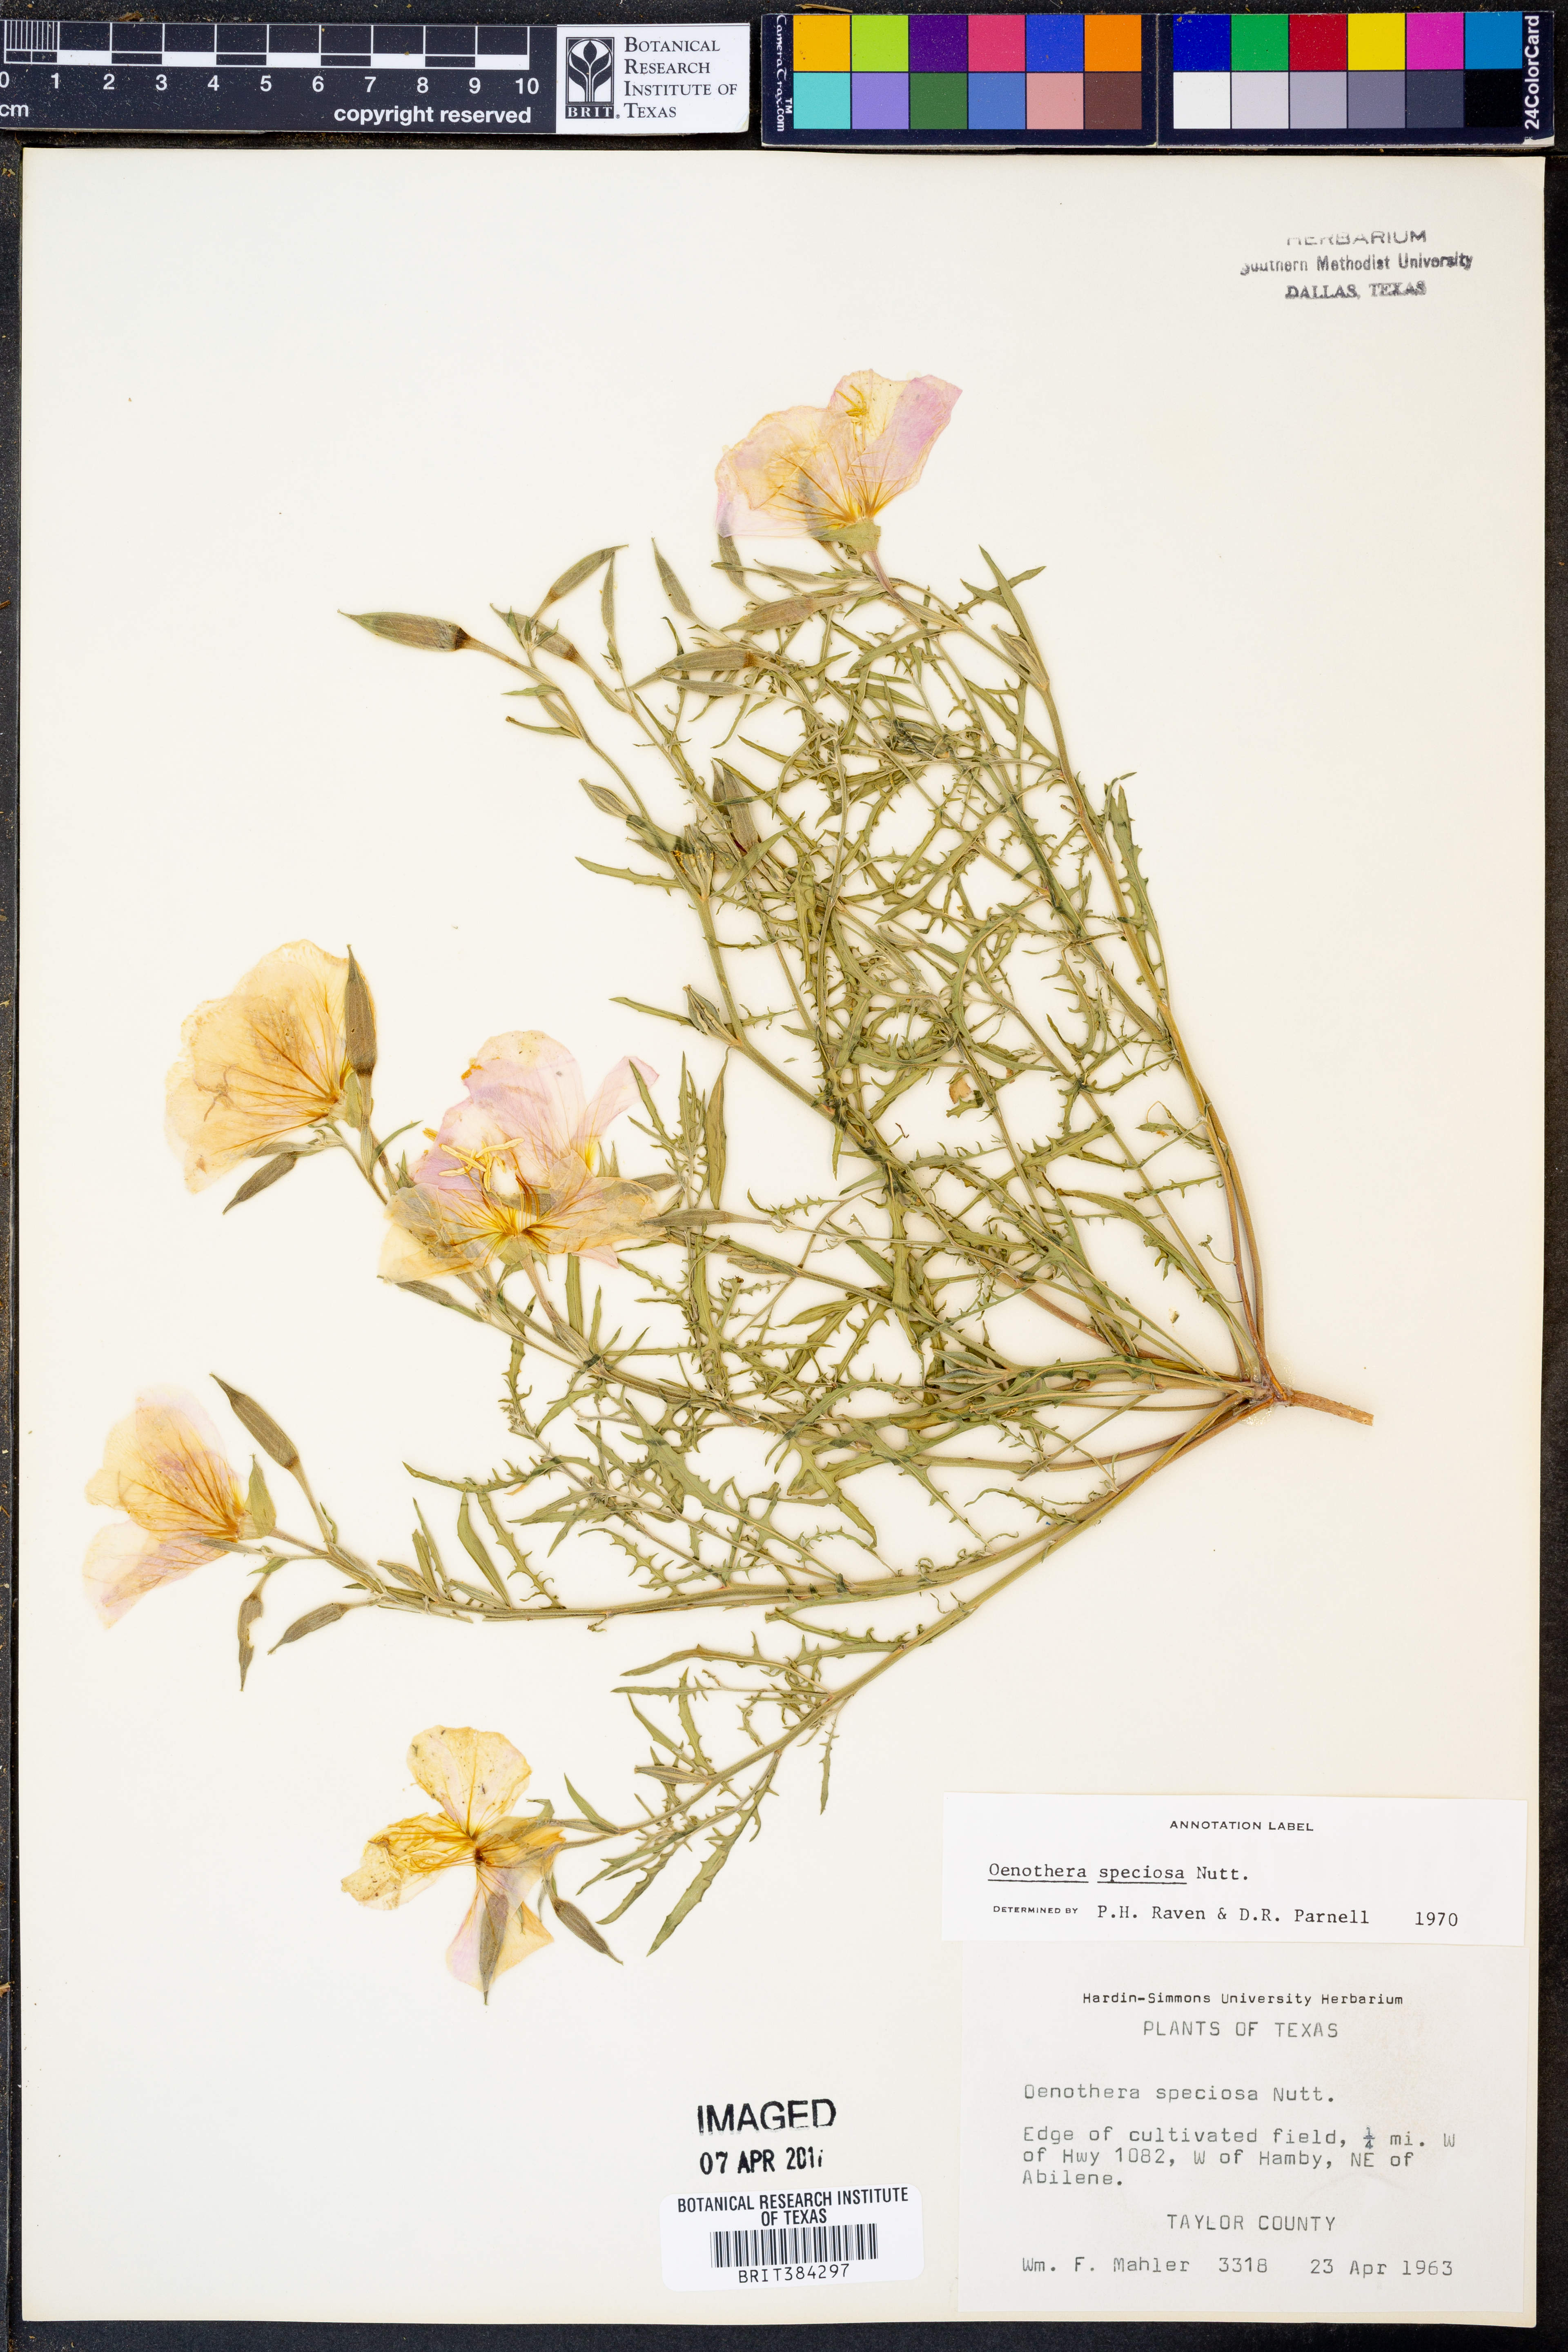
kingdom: Plantae
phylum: Tracheophyta
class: Magnoliopsida
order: Myrtales
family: Onagraceae
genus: Oenothera
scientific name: Oenothera speciosa
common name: White evening-primrose
